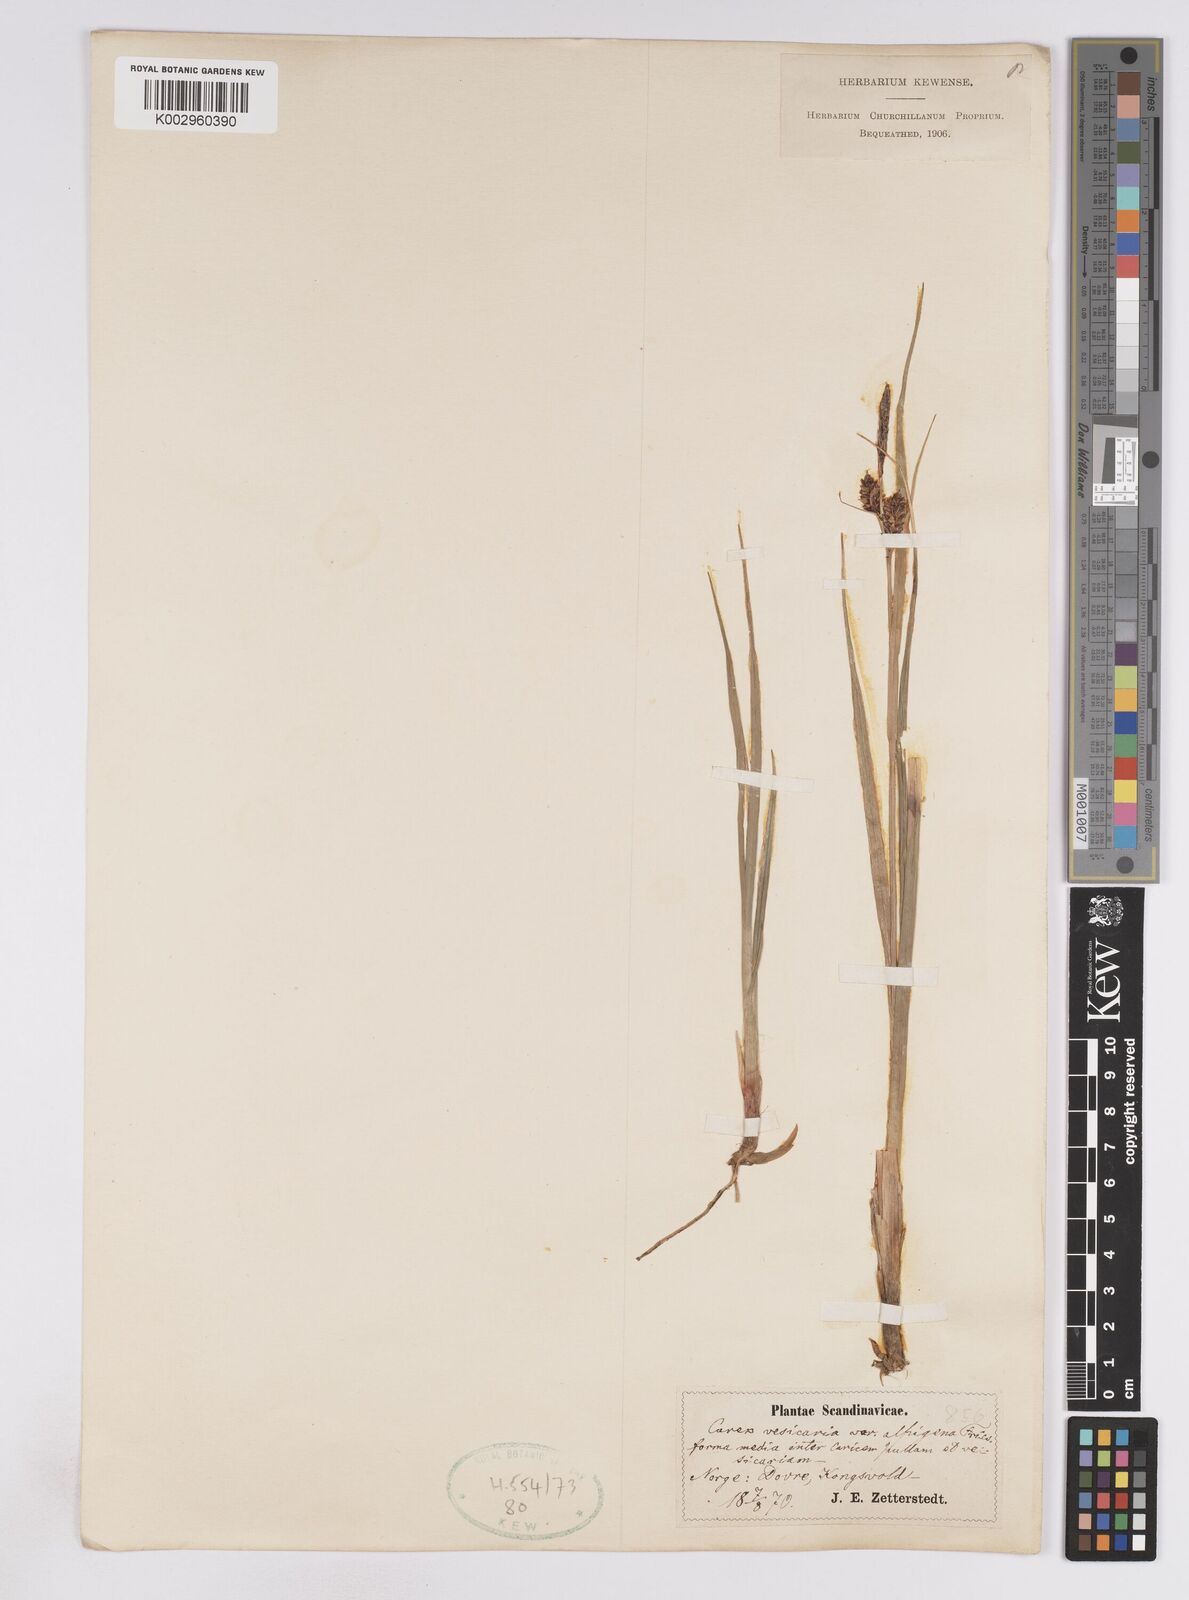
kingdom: Plantae
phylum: Tracheophyta
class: Liliopsida
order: Poales
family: Cyperaceae
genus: Carex
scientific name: Carex rostrata
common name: Bottle sedge
